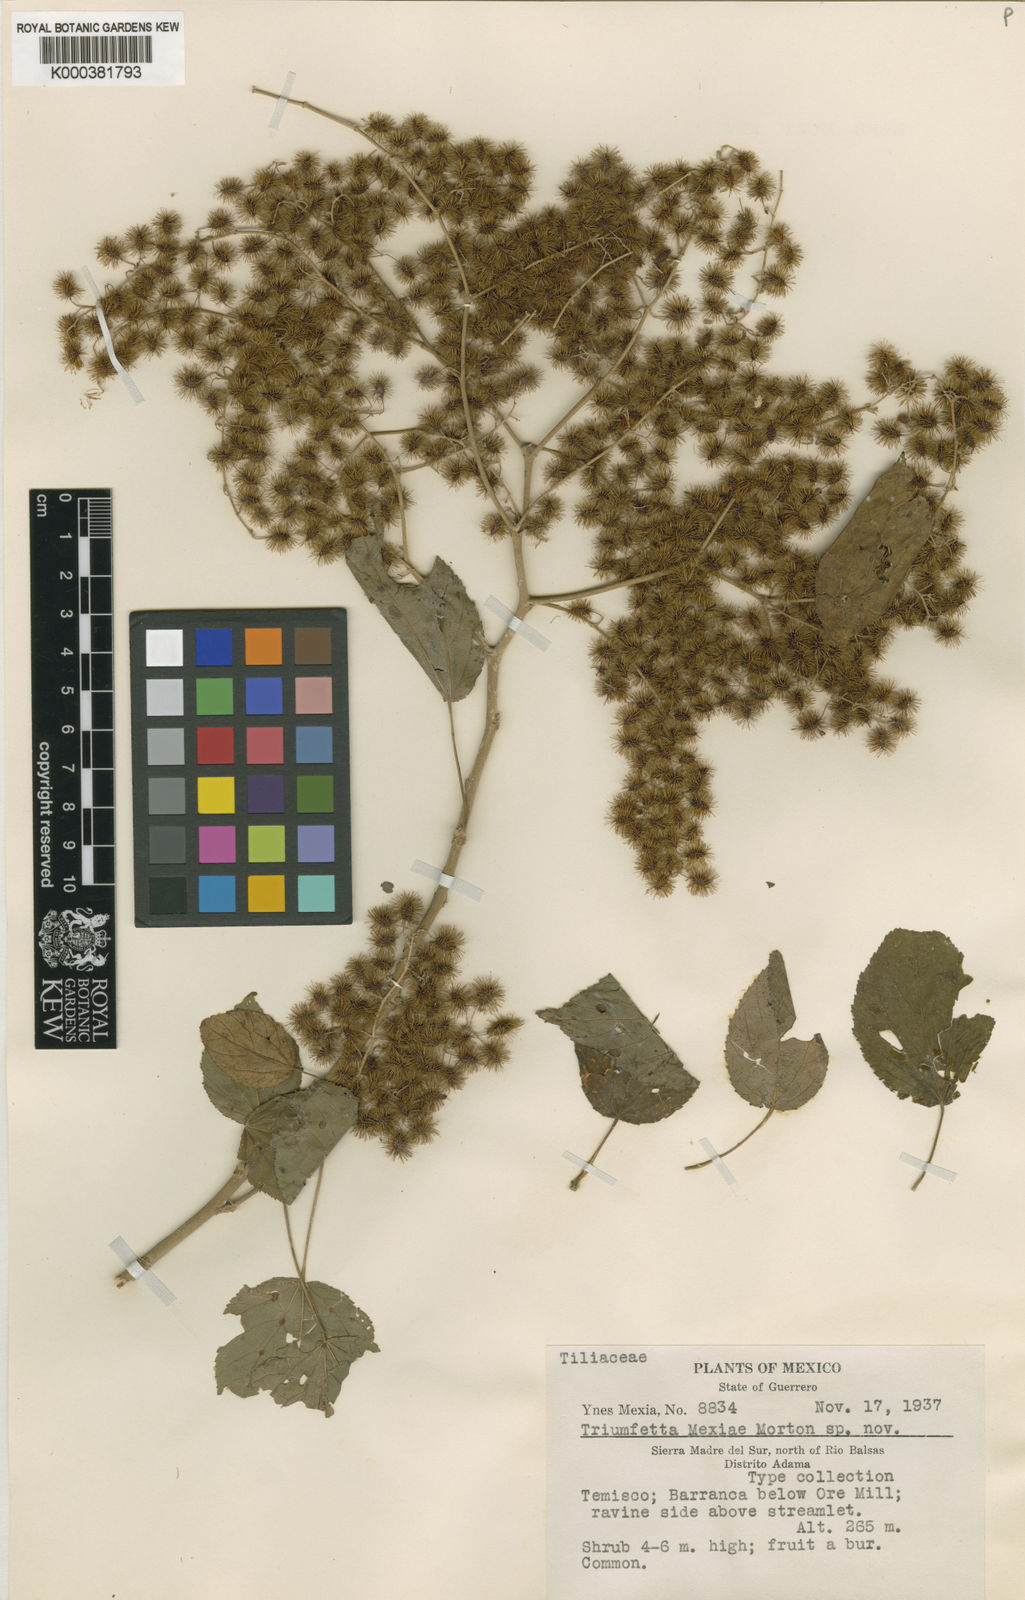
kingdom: Plantae
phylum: Tracheophyta
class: Magnoliopsida
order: Malvales
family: Malvaceae
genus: Triumfetta
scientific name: Triumfetta mexiae
